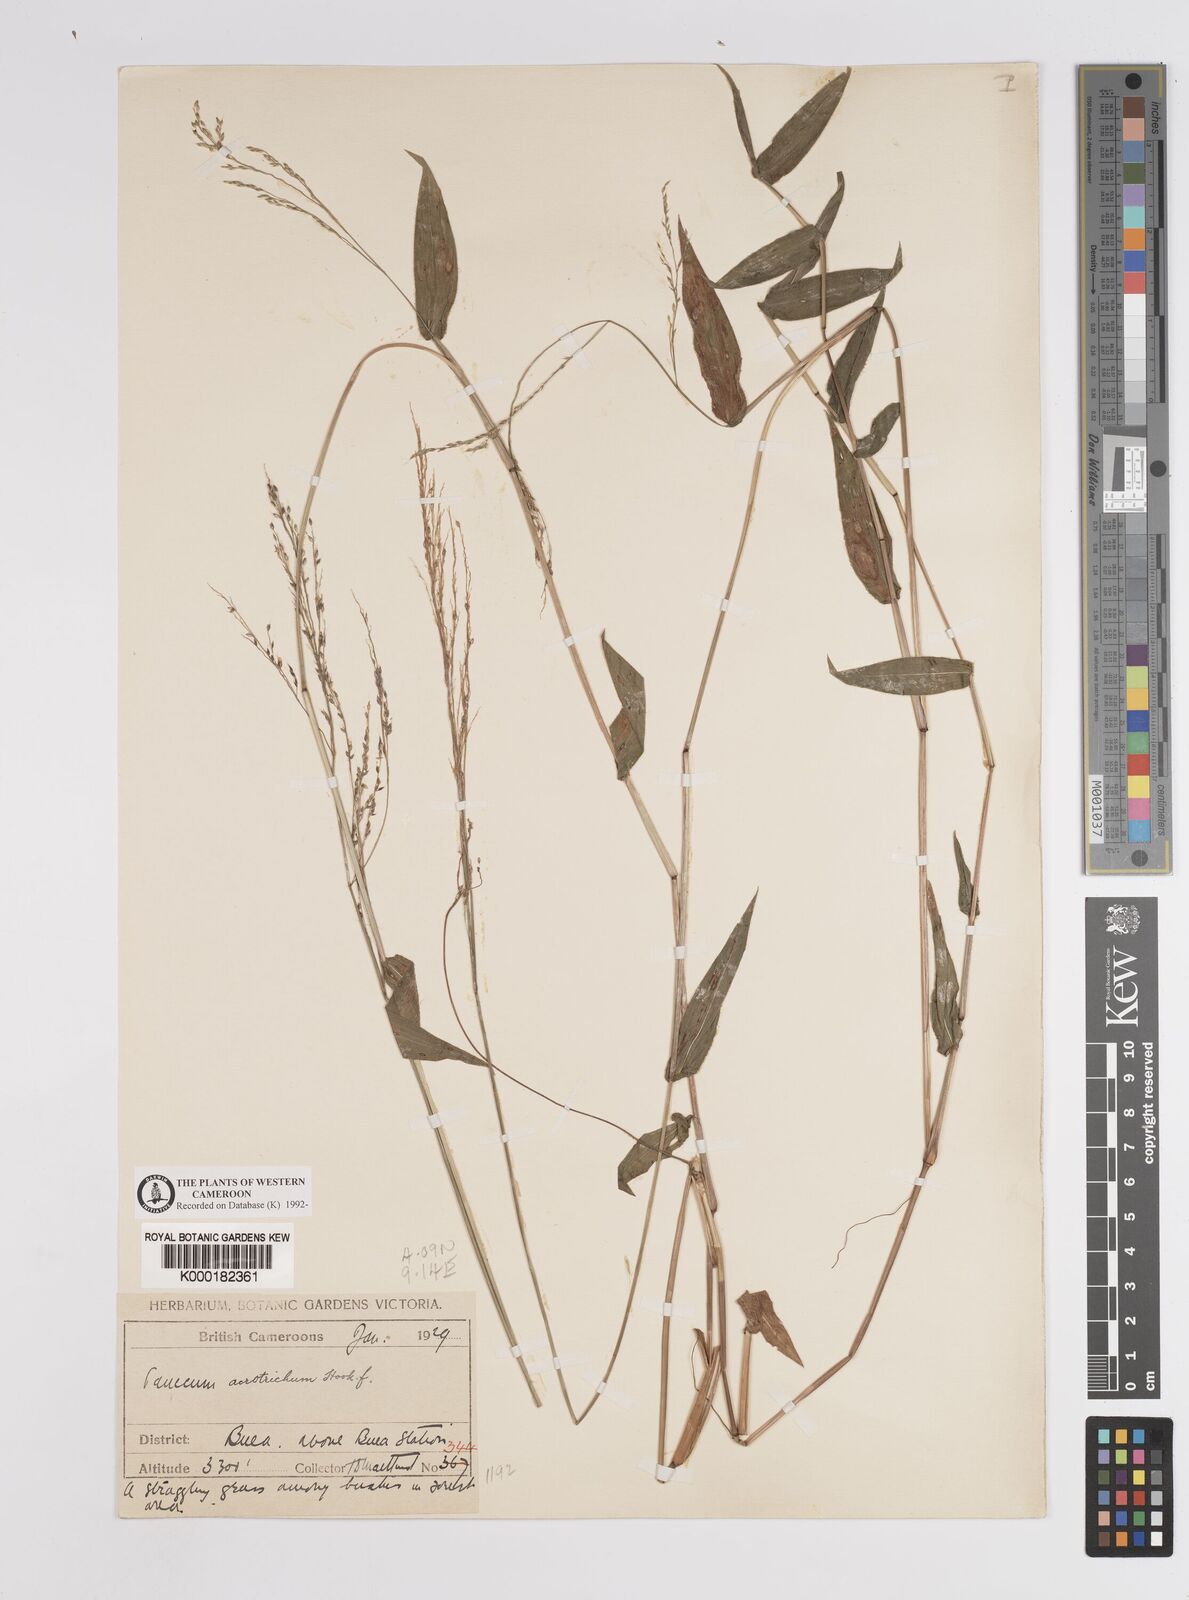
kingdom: Plantae
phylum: Tracheophyta
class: Liliopsida
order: Poales
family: Poaceae
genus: Panicum
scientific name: Panicum acrotrichum
